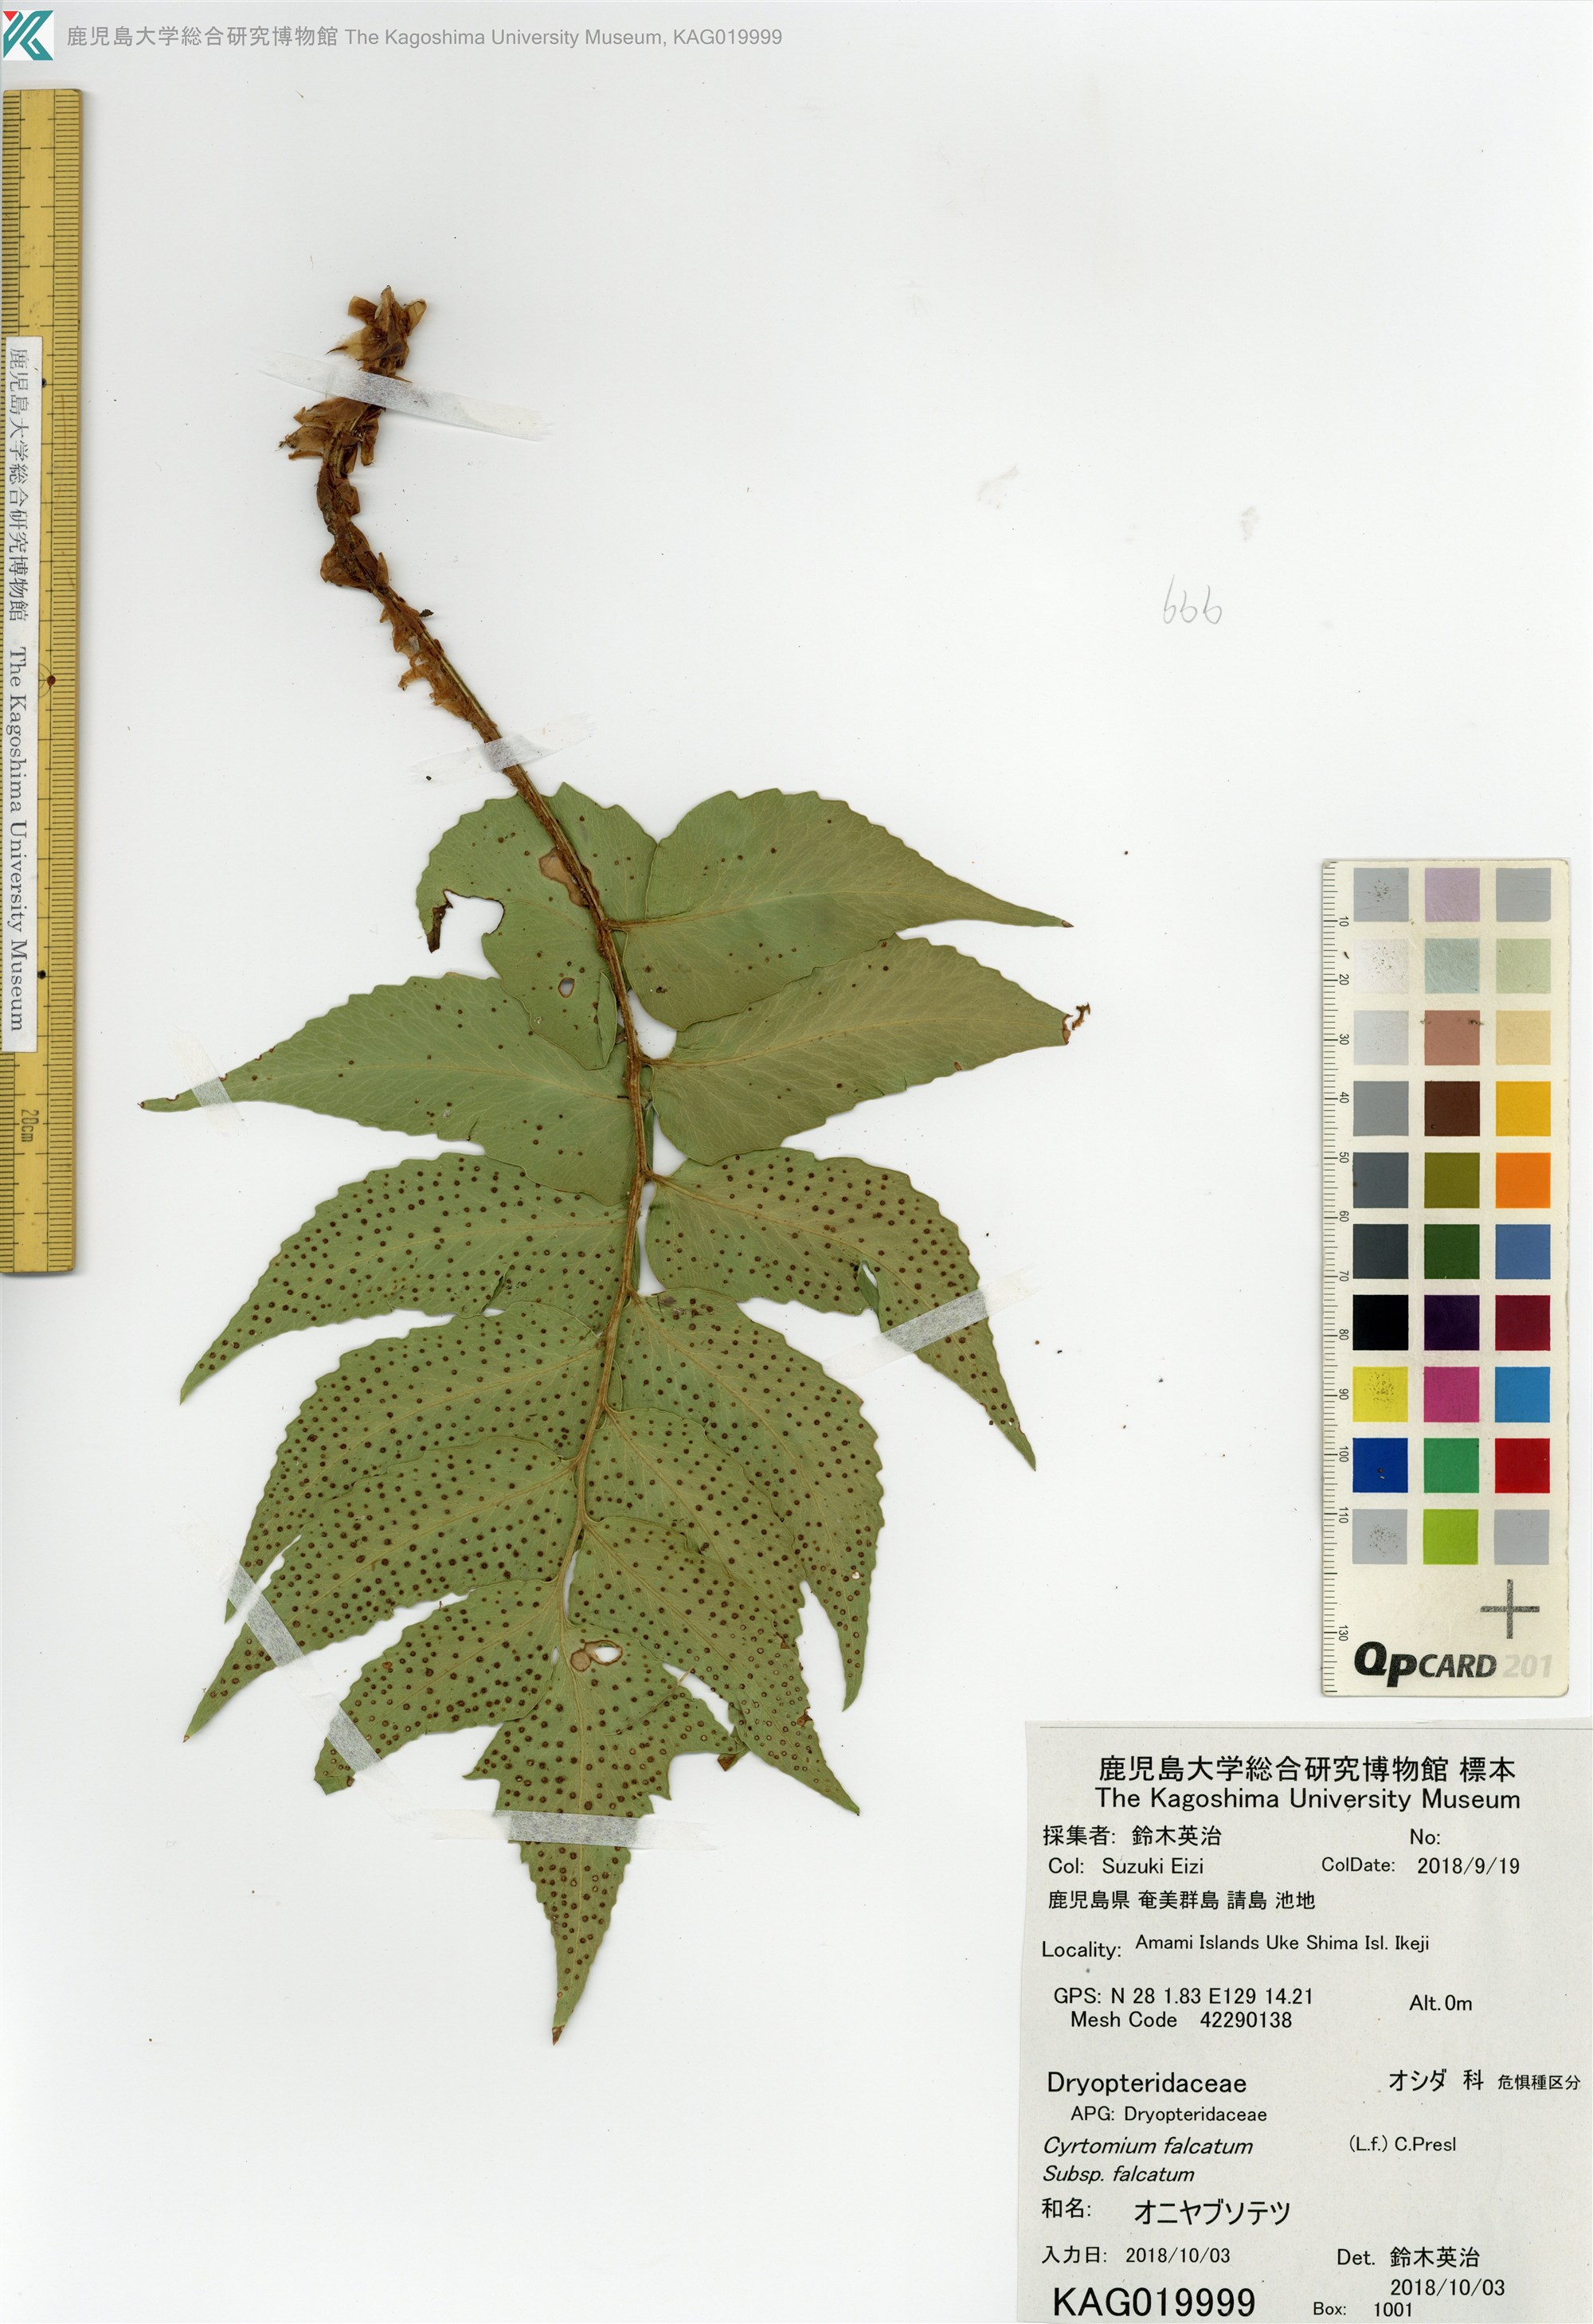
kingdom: Plantae
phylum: Tracheophyta
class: Polypodiopsida
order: Polypodiales
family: Dryopteridaceae
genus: Cyrtomium
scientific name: Cyrtomium falcatum
